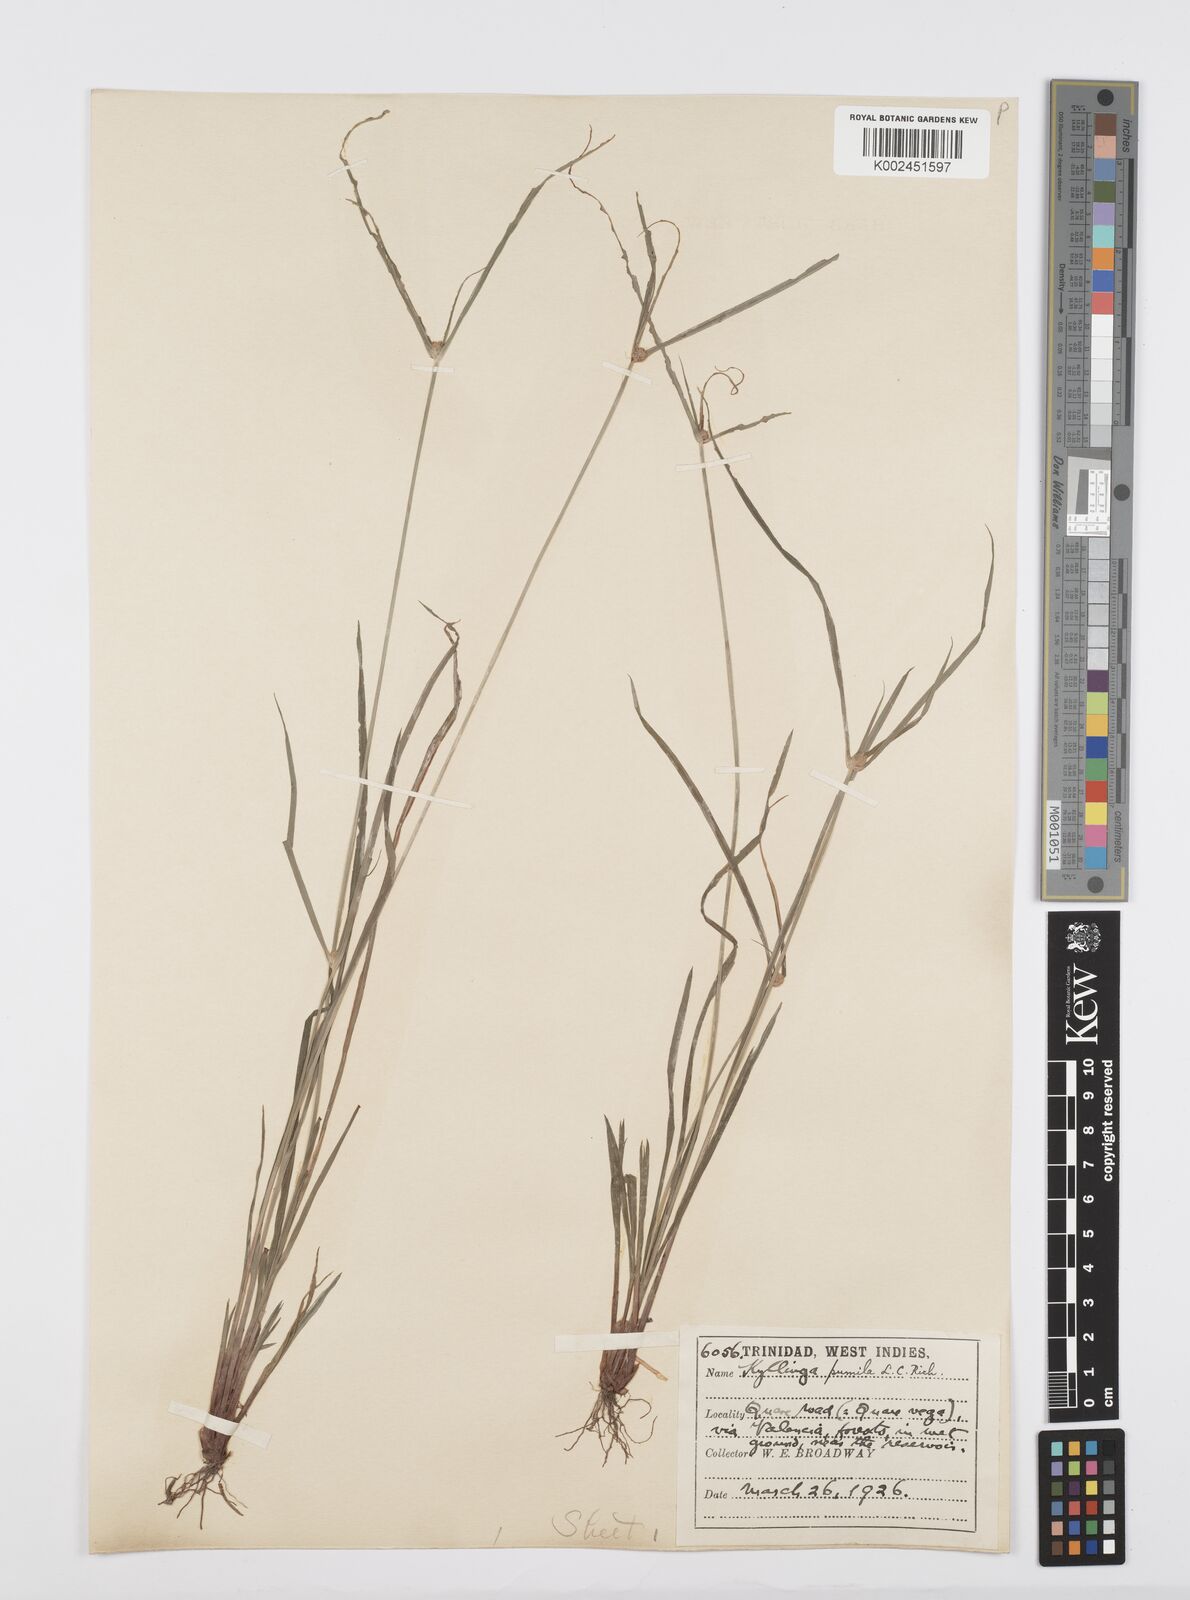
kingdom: Plantae
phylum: Tracheophyta
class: Liliopsida
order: Poales
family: Cyperaceae
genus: Cyperus
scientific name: Cyperus
